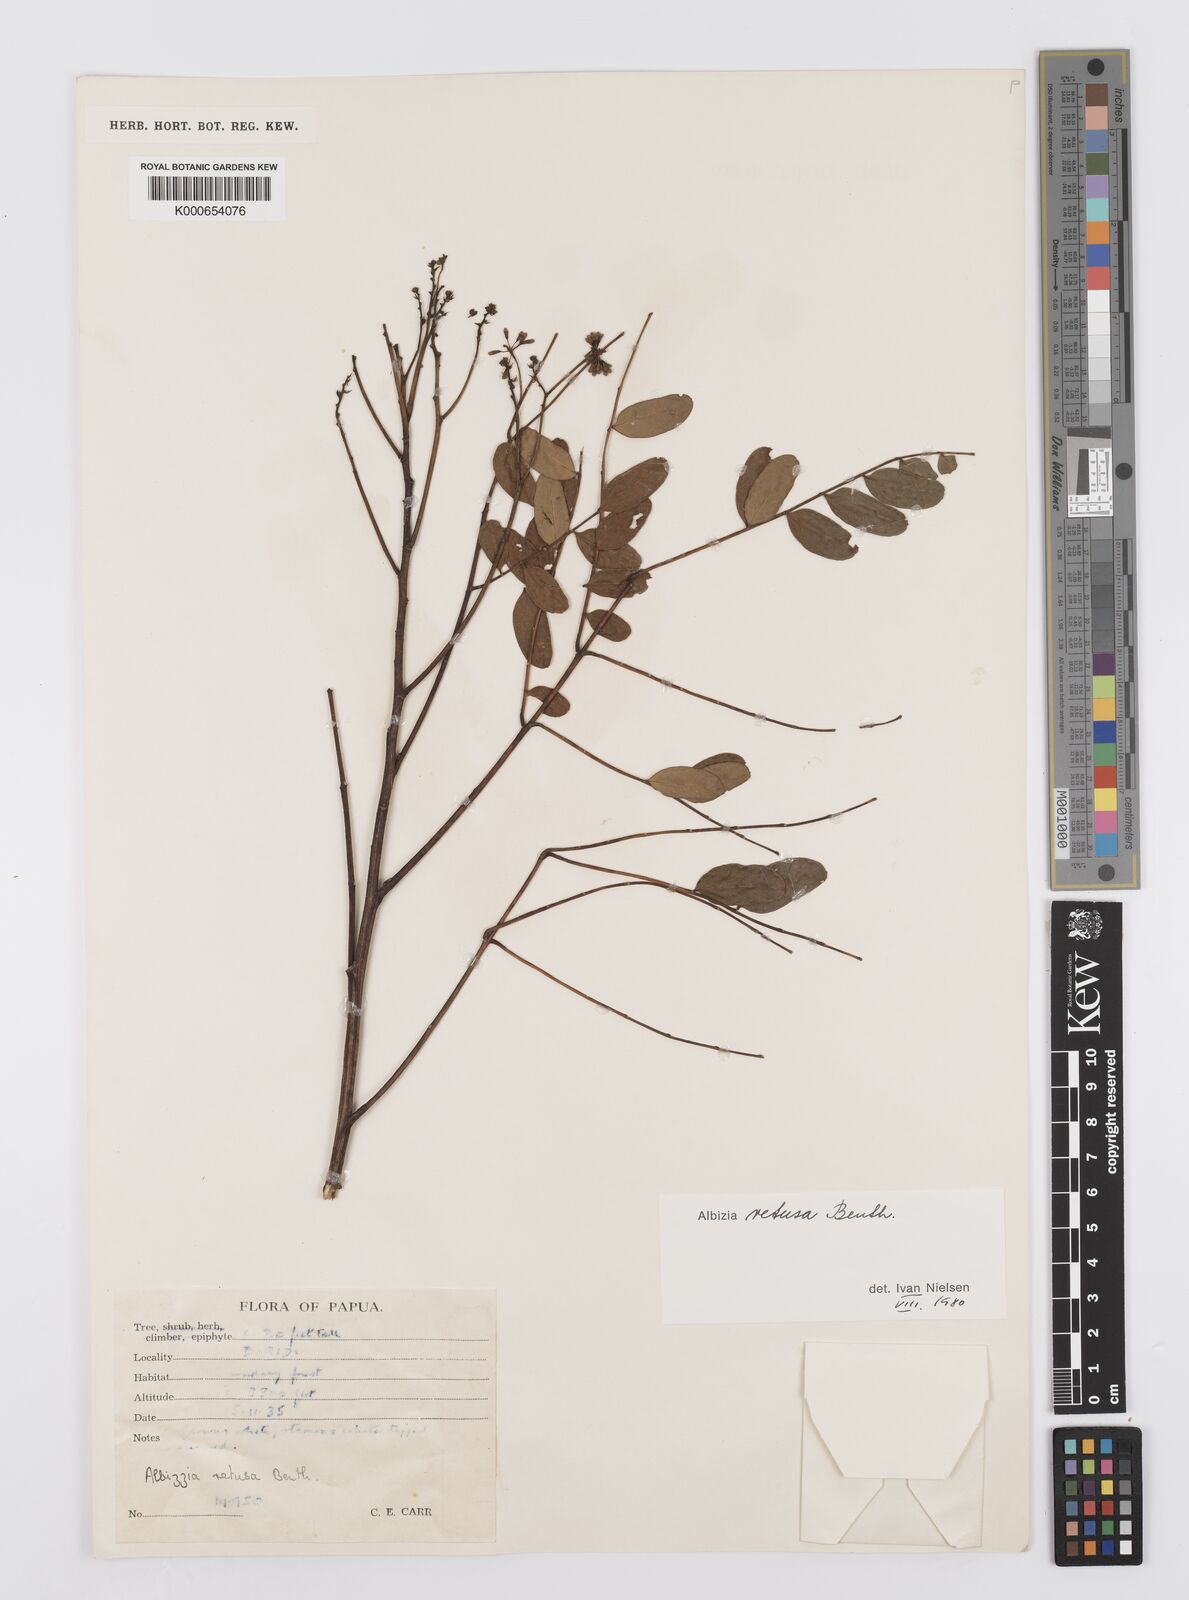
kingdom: Plantae
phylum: Tracheophyta
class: Magnoliopsida
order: Fabales
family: Fabaceae
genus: Albizia
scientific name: Albizia retusa
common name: Sea albizia
